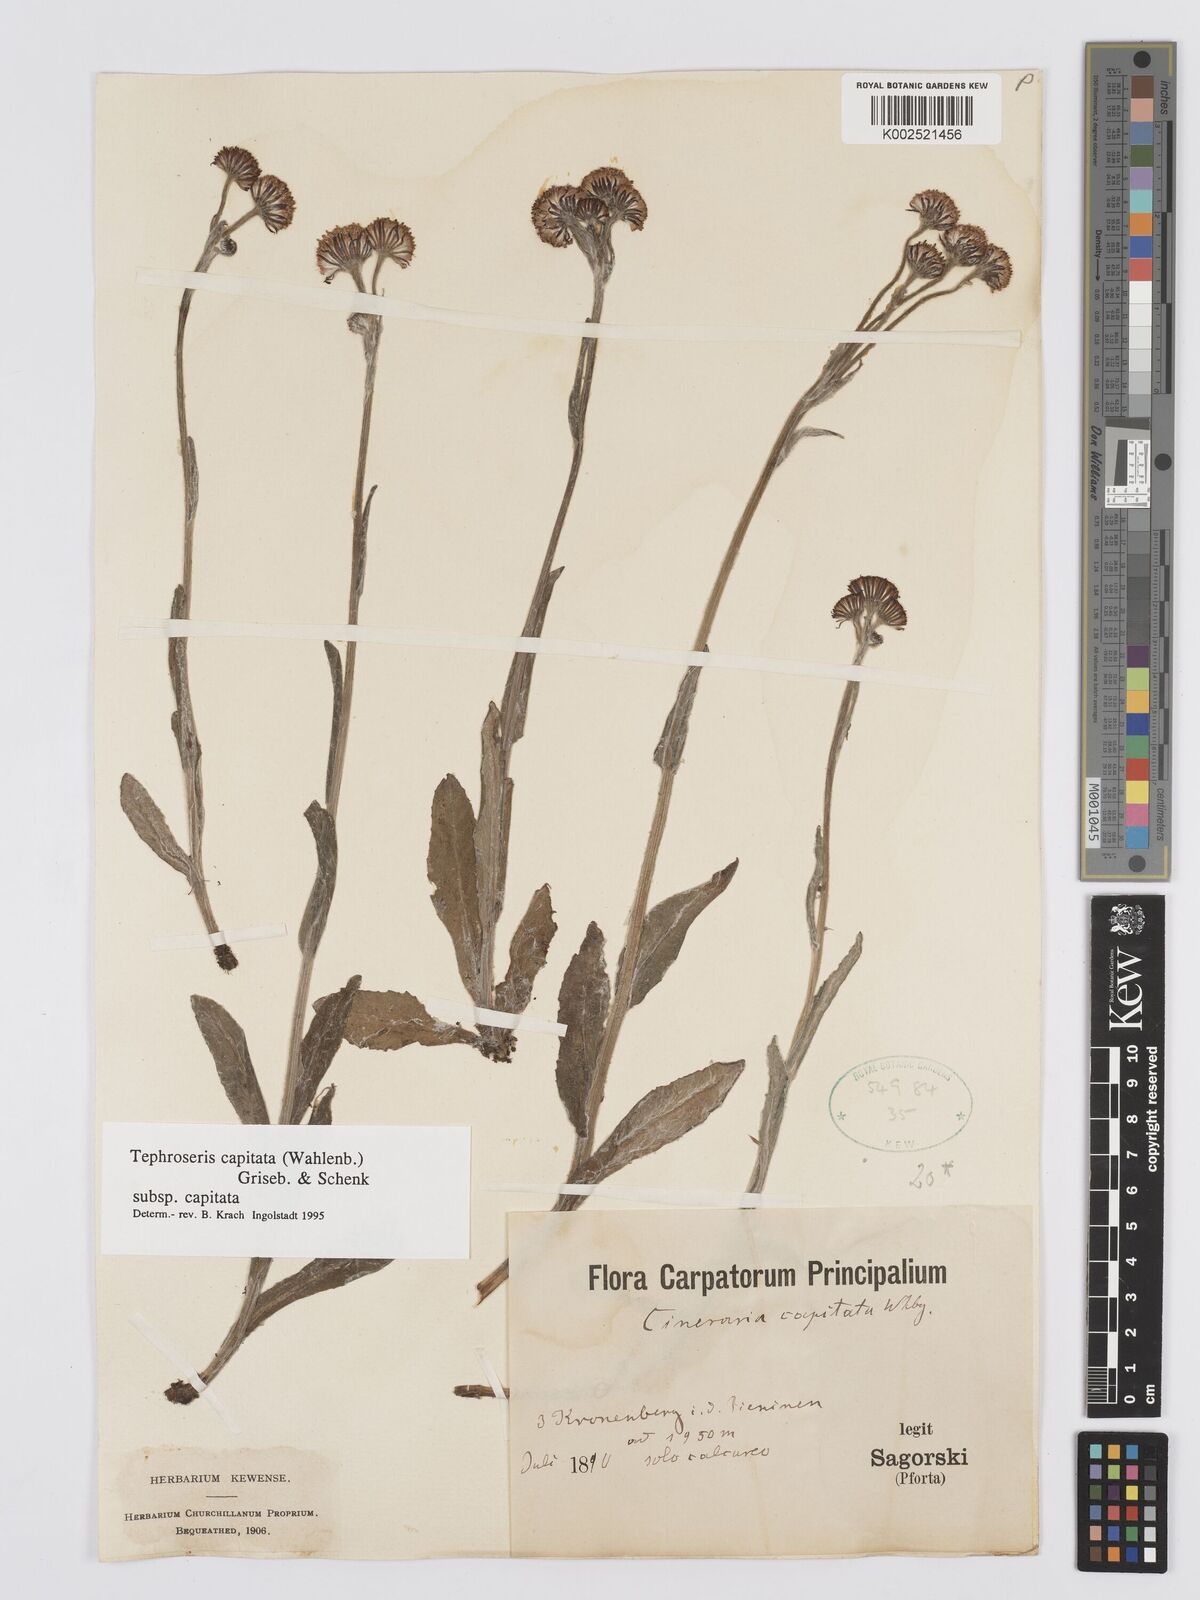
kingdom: Plantae
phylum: Tracheophyta
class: Magnoliopsida
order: Asterales
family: Asteraceae
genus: Tephroseris
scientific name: Tephroseris integrifolia
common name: Field fleawort
